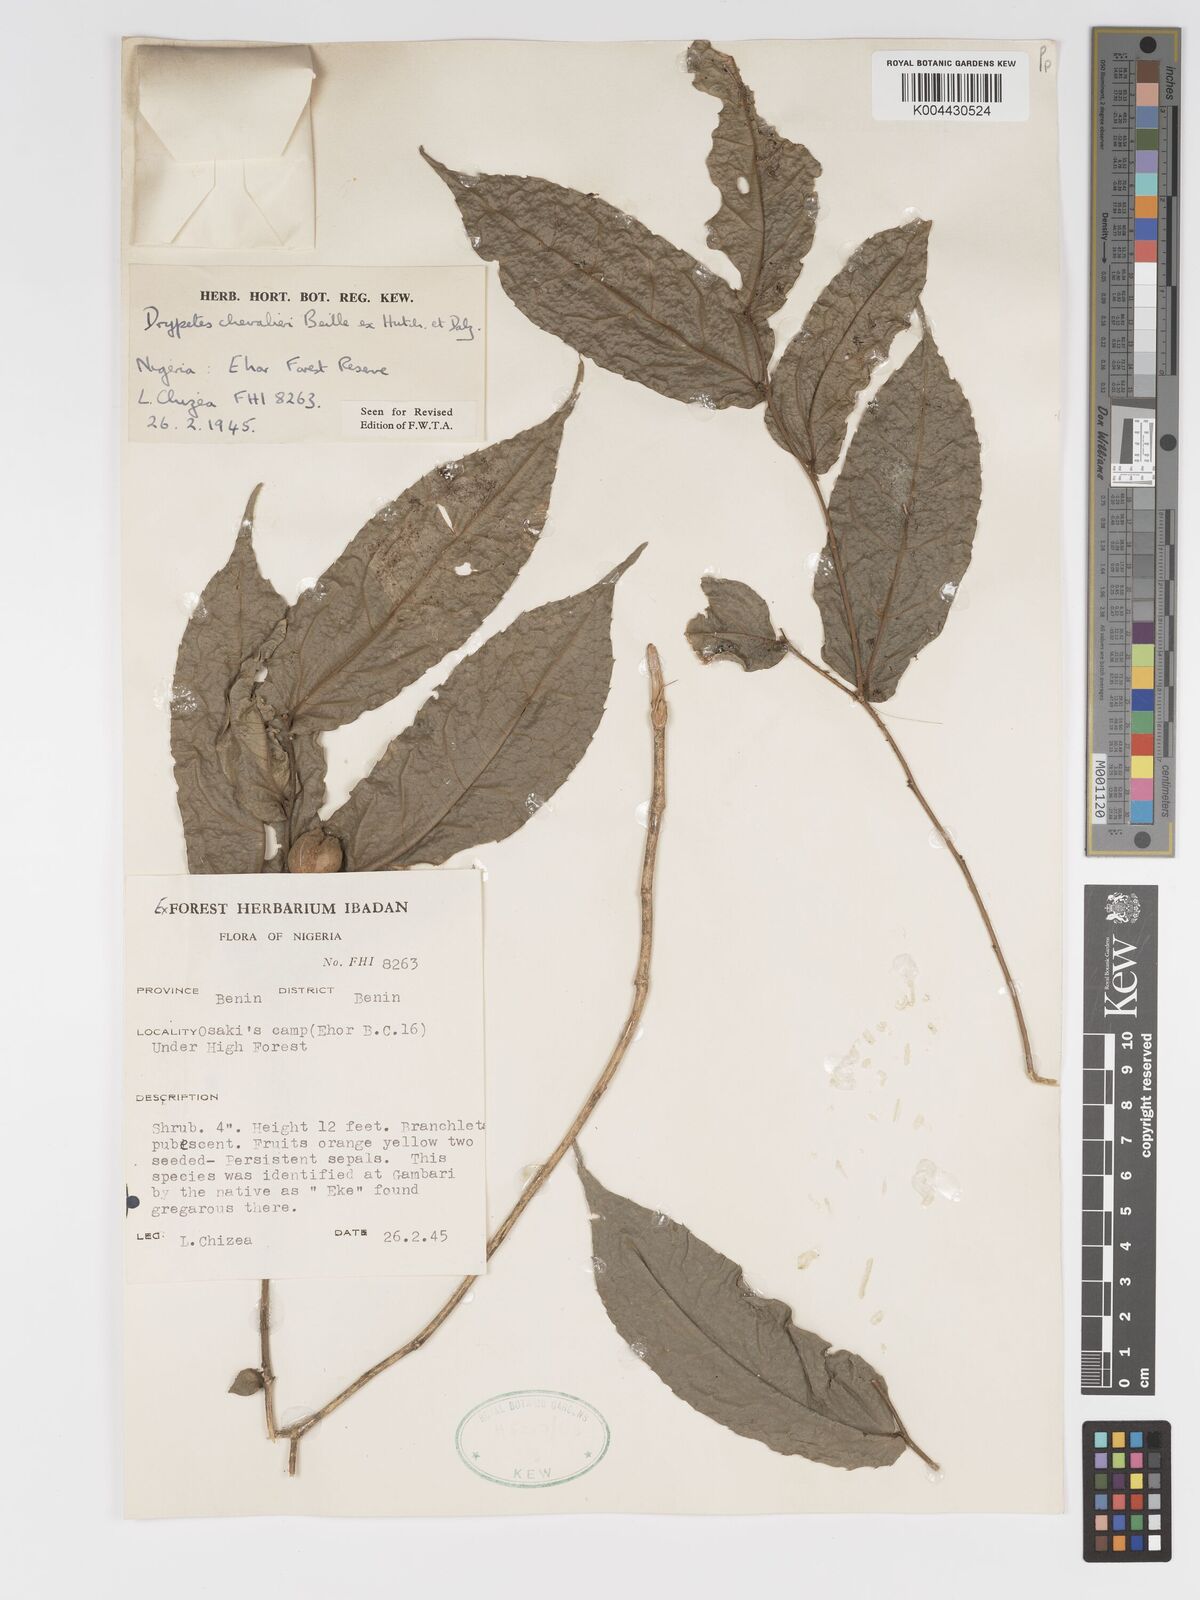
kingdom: Plantae
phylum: Tracheophyta
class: Magnoliopsida
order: Malpighiales
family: Putranjivaceae
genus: Drypetes
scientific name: Drypetes chevalieri
